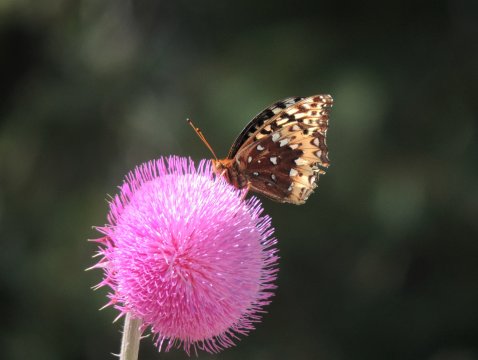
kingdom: Animalia
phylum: Arthropoda
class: Insecta
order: Lepidoptera
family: Nymphalidae
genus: Speyeria
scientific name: Speyeria cybele
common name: Great Spangled Fritillary
